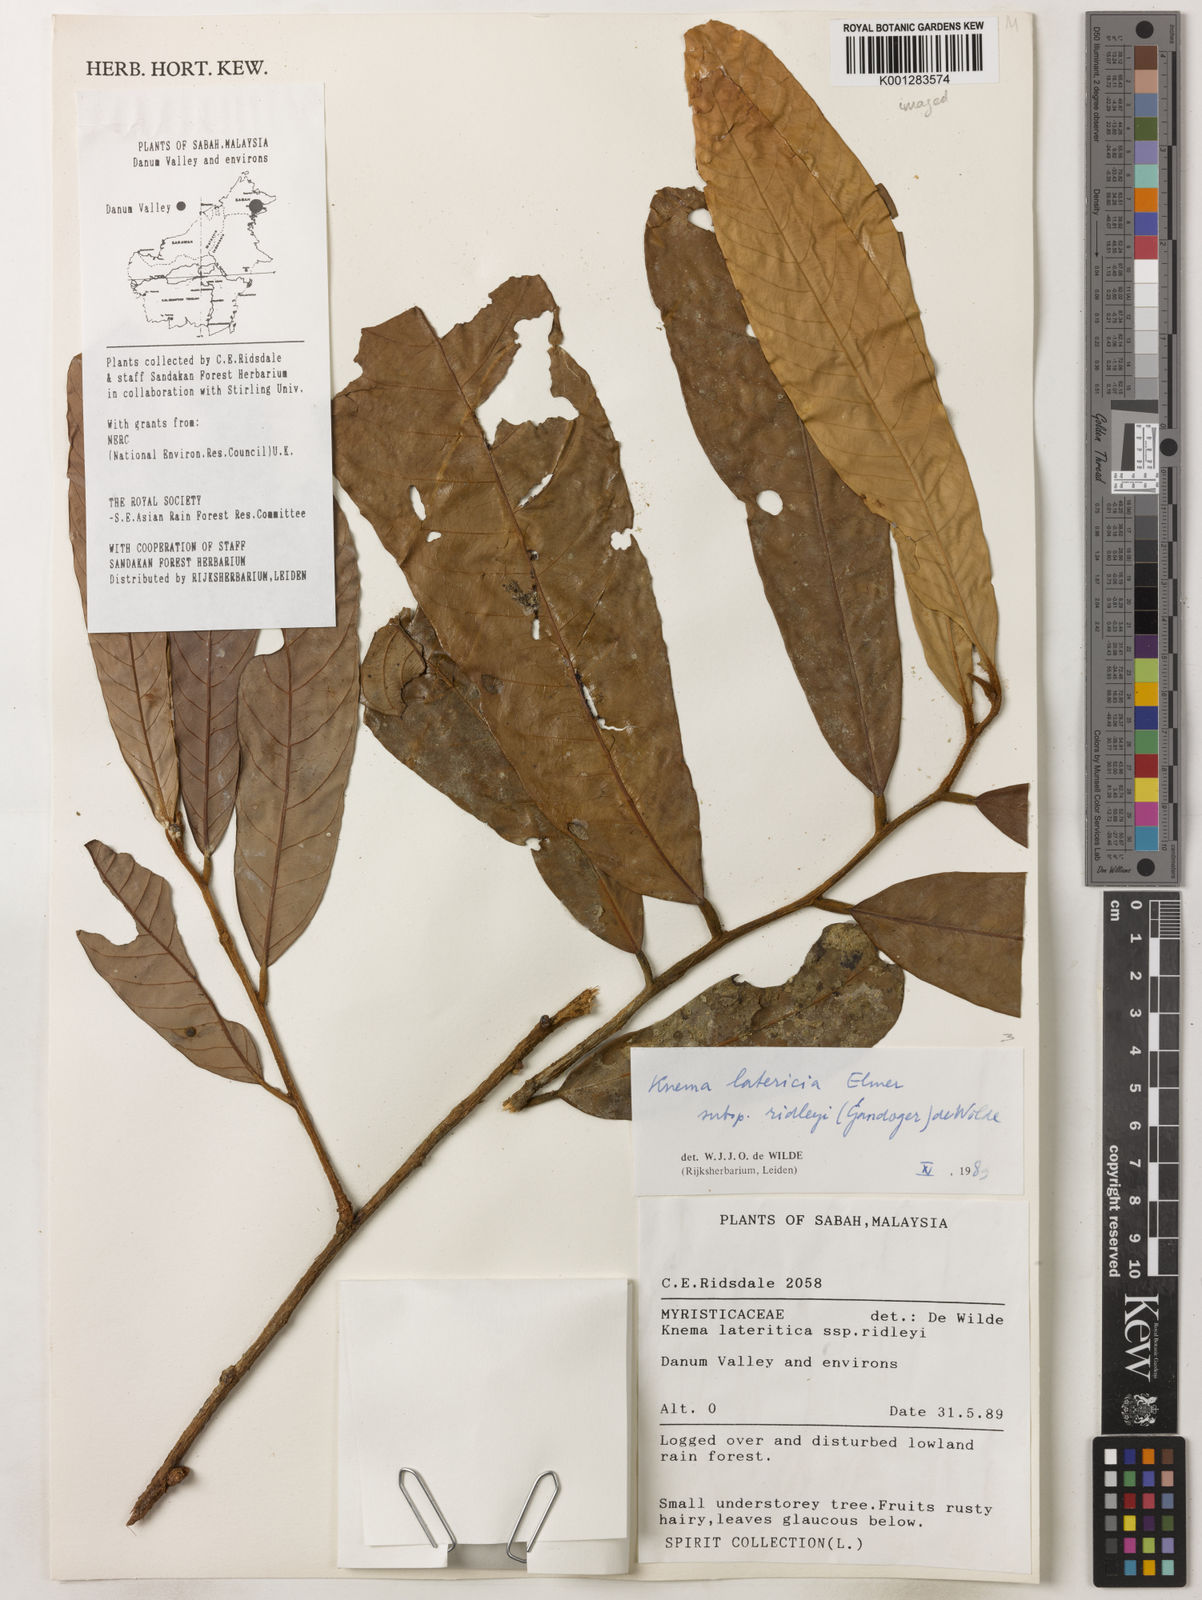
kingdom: Plantae
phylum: Tracheophyta
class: Magnoliopsida
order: Magnoliales
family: Myristicaceae
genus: Knema
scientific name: Knema latericia
